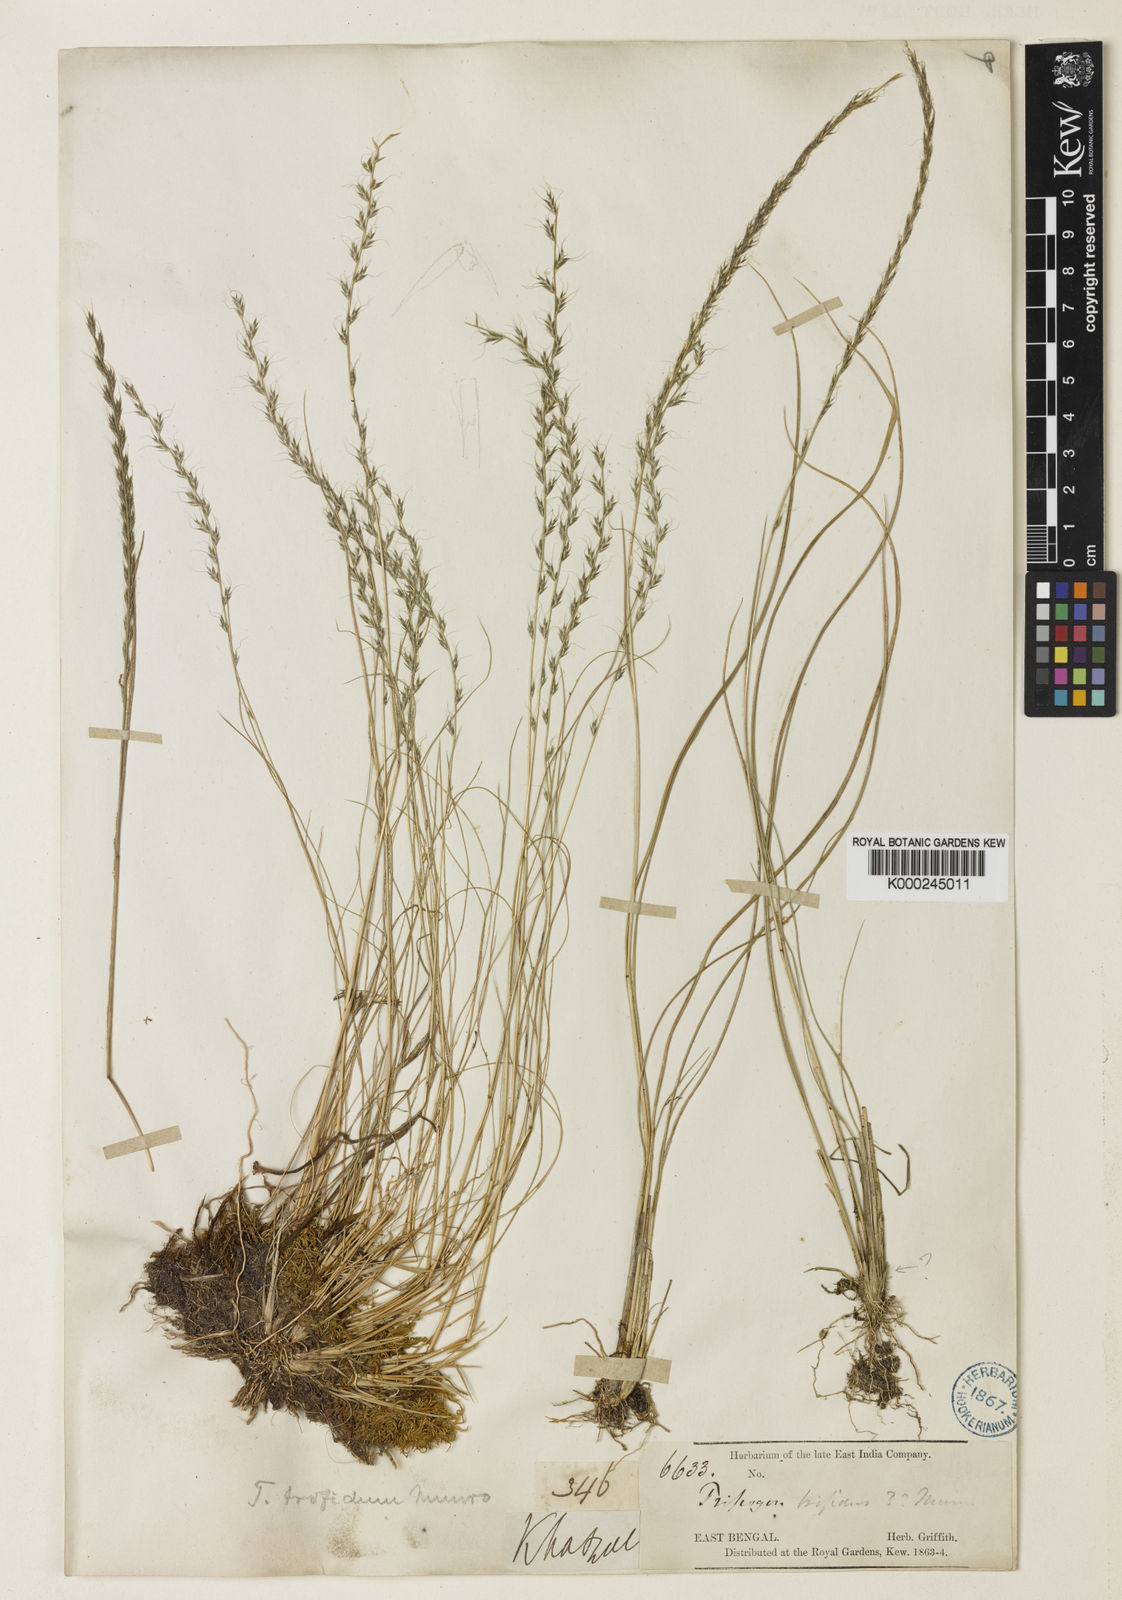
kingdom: Plantae
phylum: Tracheophyta
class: Liliopsida
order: Poales
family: Poaceae
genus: Tripogon
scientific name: Tripogon
